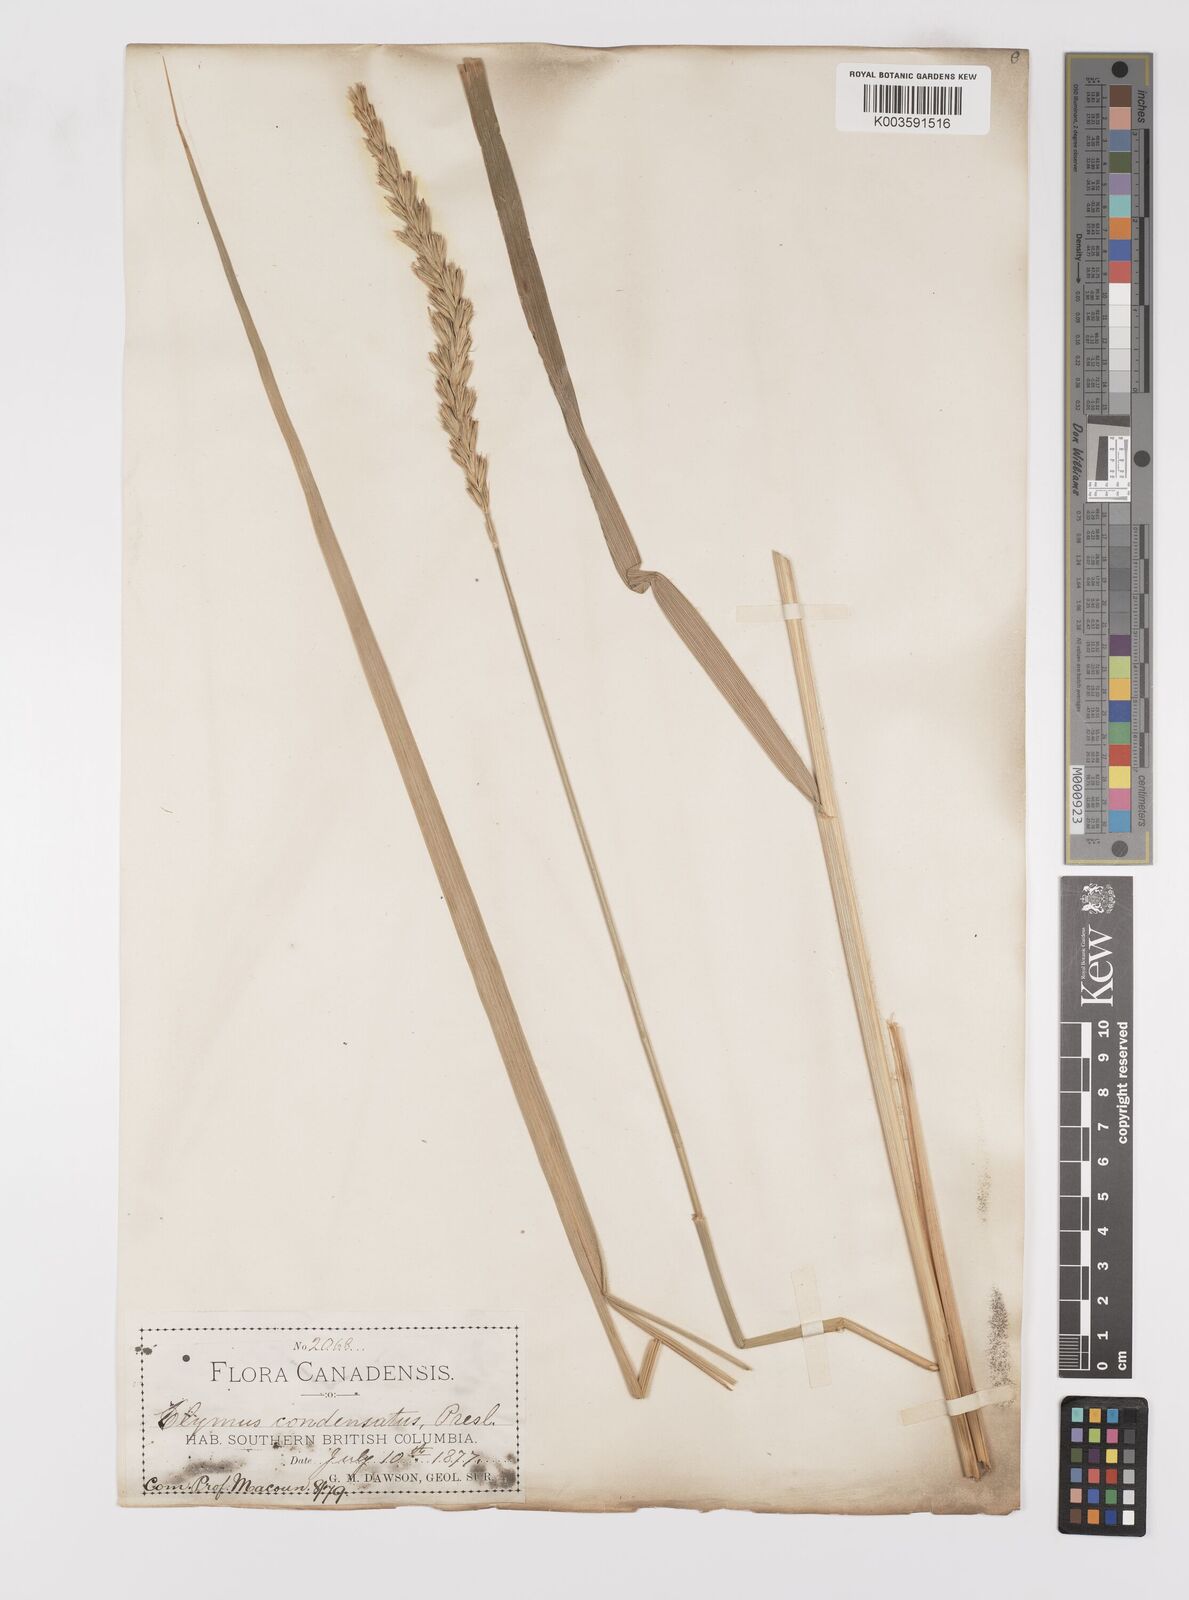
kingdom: Plantae
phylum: Tracheophyta
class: Liliopsida
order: Poales
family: Poaceae
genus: Leymus
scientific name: Leymus condensatus
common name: Giant wild rye
